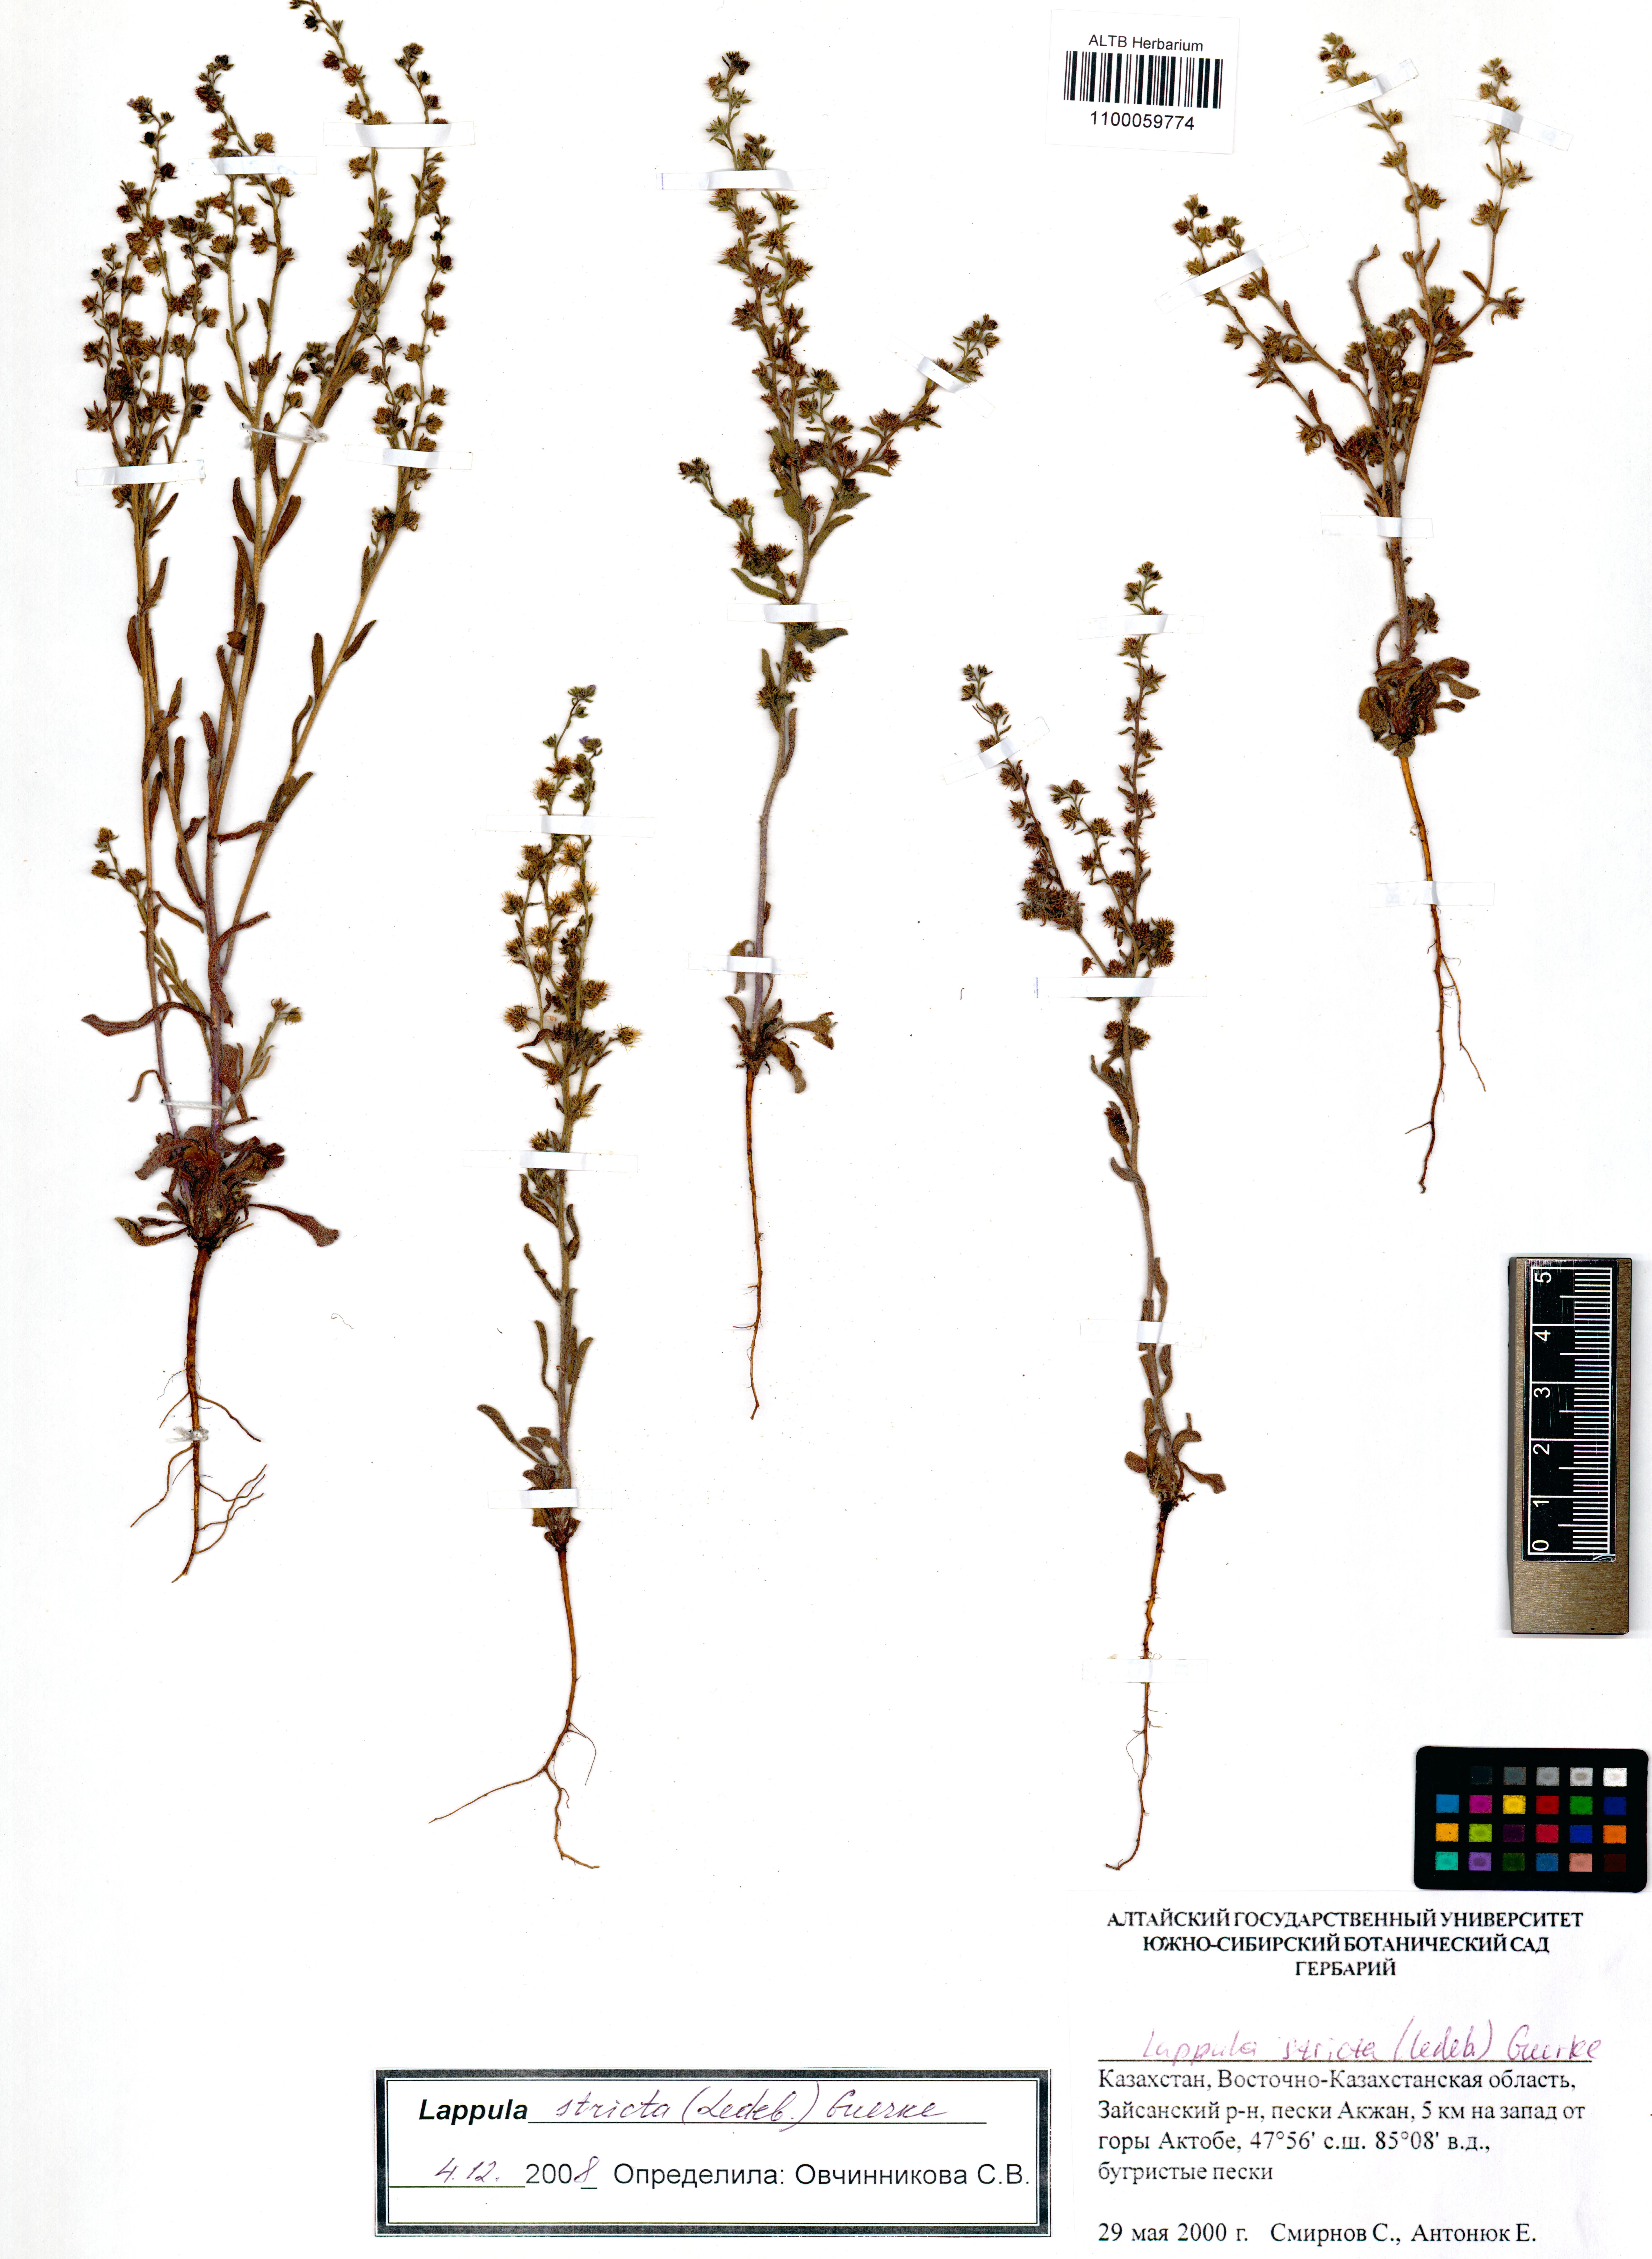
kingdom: Plantae
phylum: Tracheophyta
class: Magnoliopsida
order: Boraginales
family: Boraginaceae
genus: Lappula
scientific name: Lappula stricta
